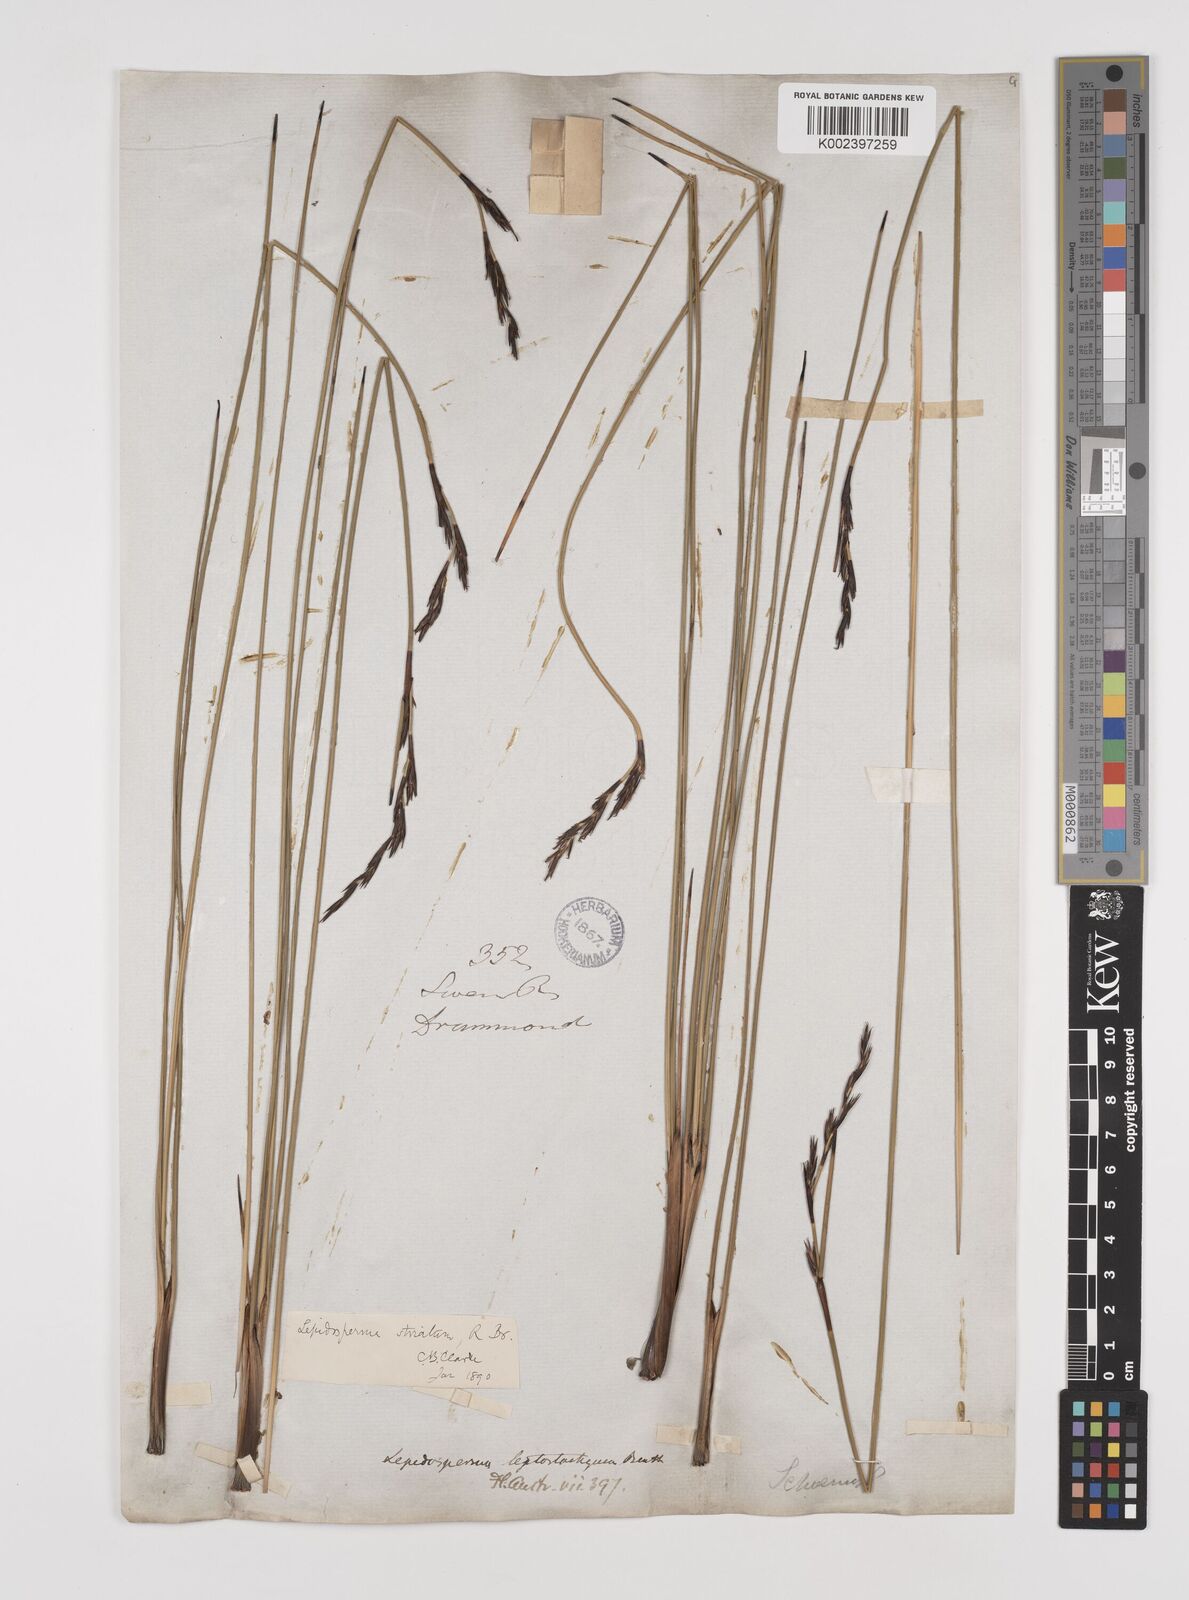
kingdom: Plantae
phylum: Tracheophyta
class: Liliopsida
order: Poales
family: Cyperaceae
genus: Lepidosperma
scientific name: Lepidosperma striatum
